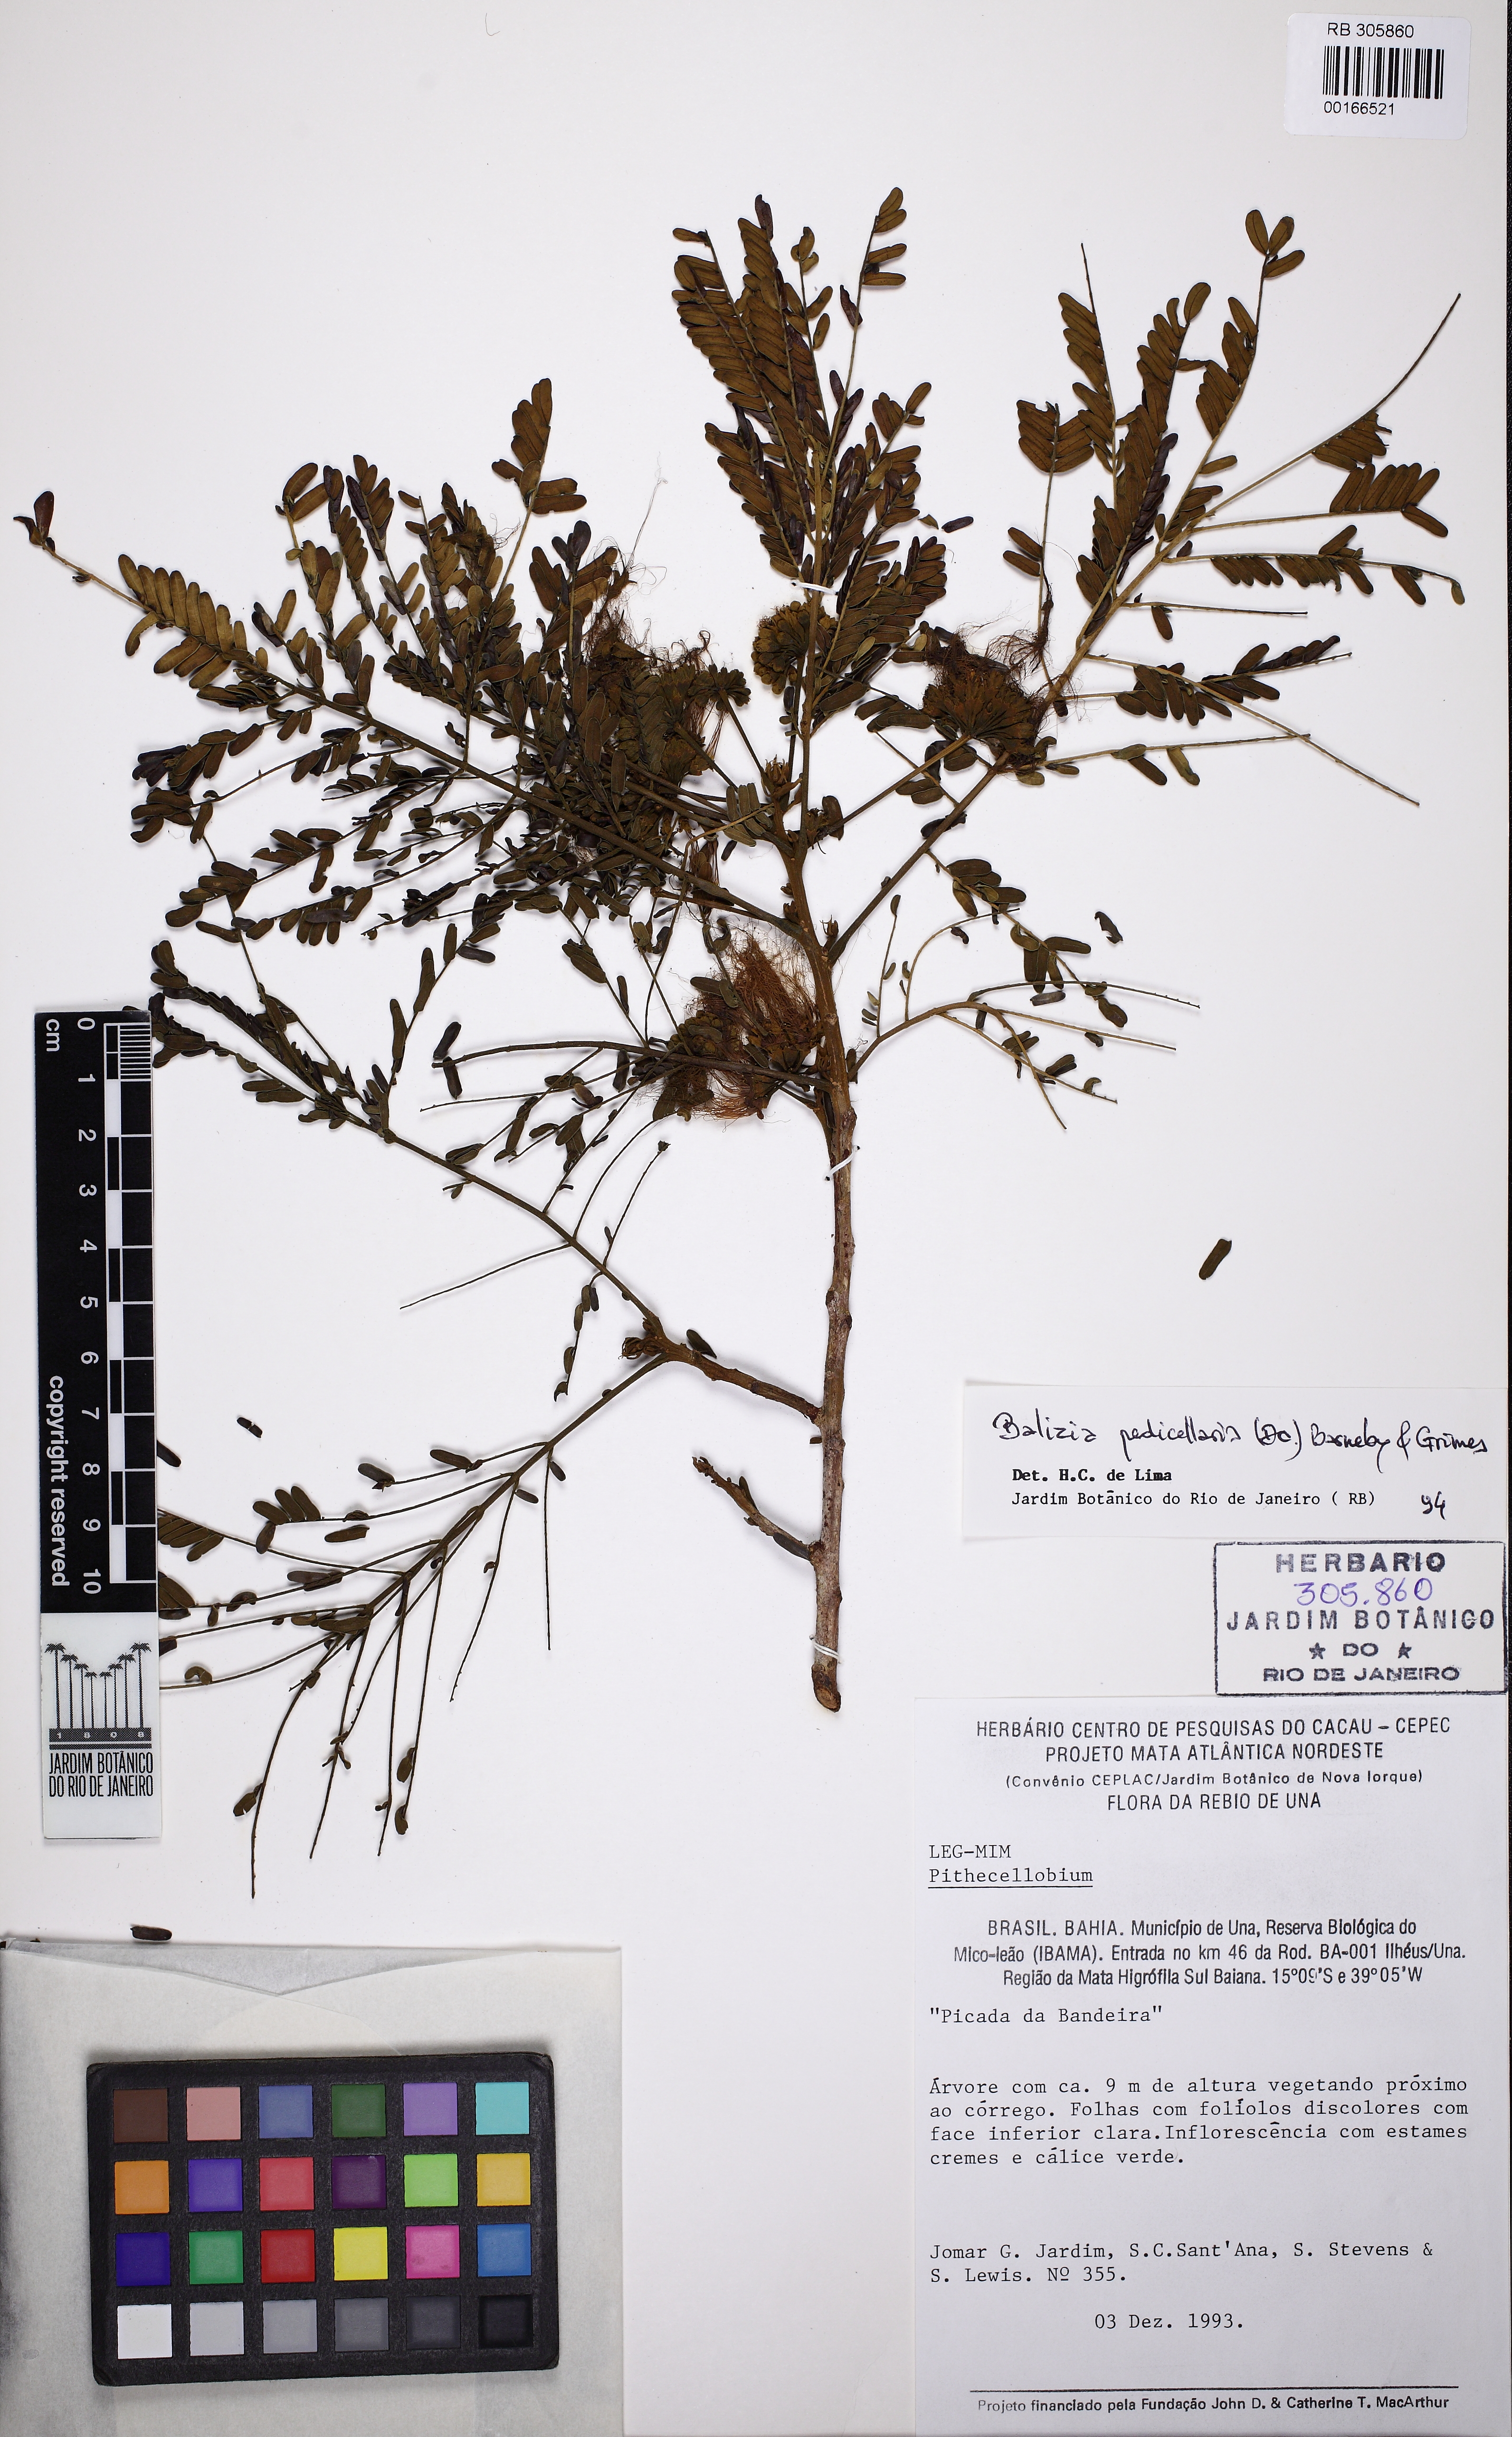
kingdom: Plantae
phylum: Tracheophyta
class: Magnoliopsida
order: Fabales
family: Fabaceae
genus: Balizia
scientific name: Balizia pedicellaris
